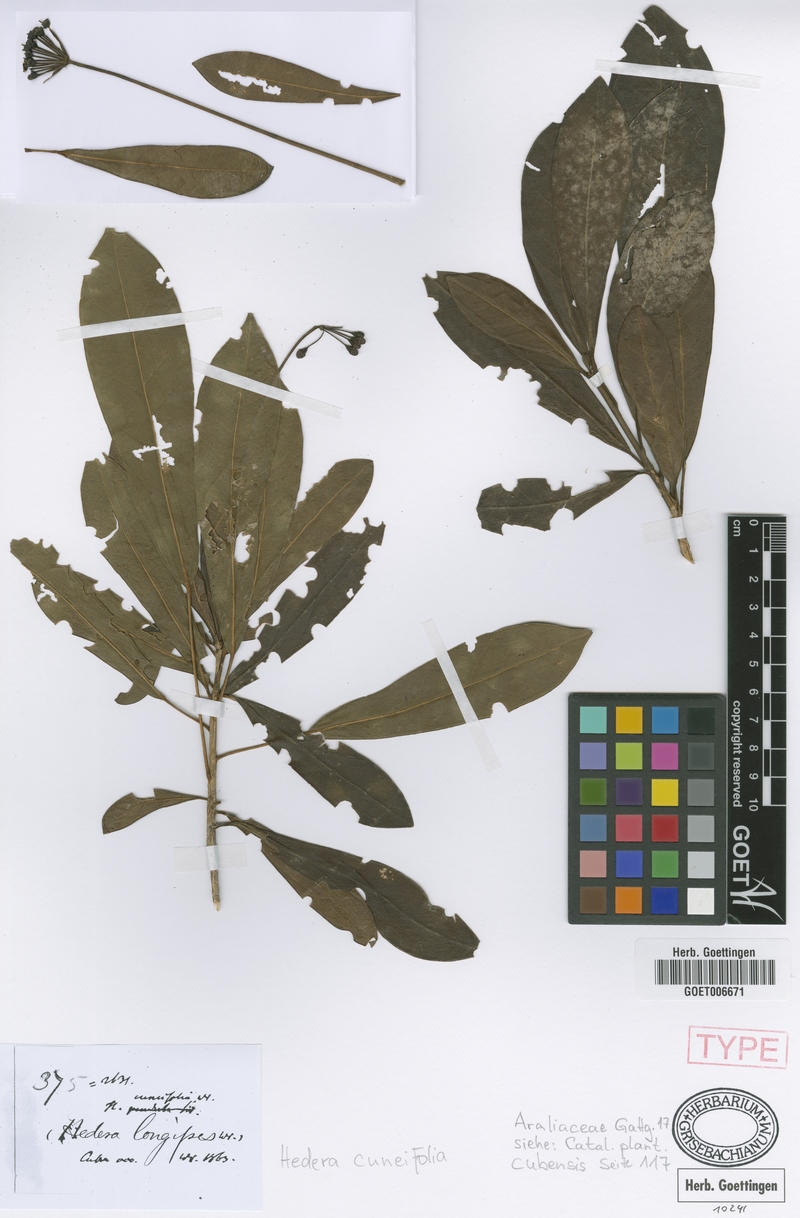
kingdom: Plantae
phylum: Tracheophyta
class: Magnoliopsida
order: Apiales
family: Araliaceae
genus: Dendropanax
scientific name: Dendropanax cuneifolius
